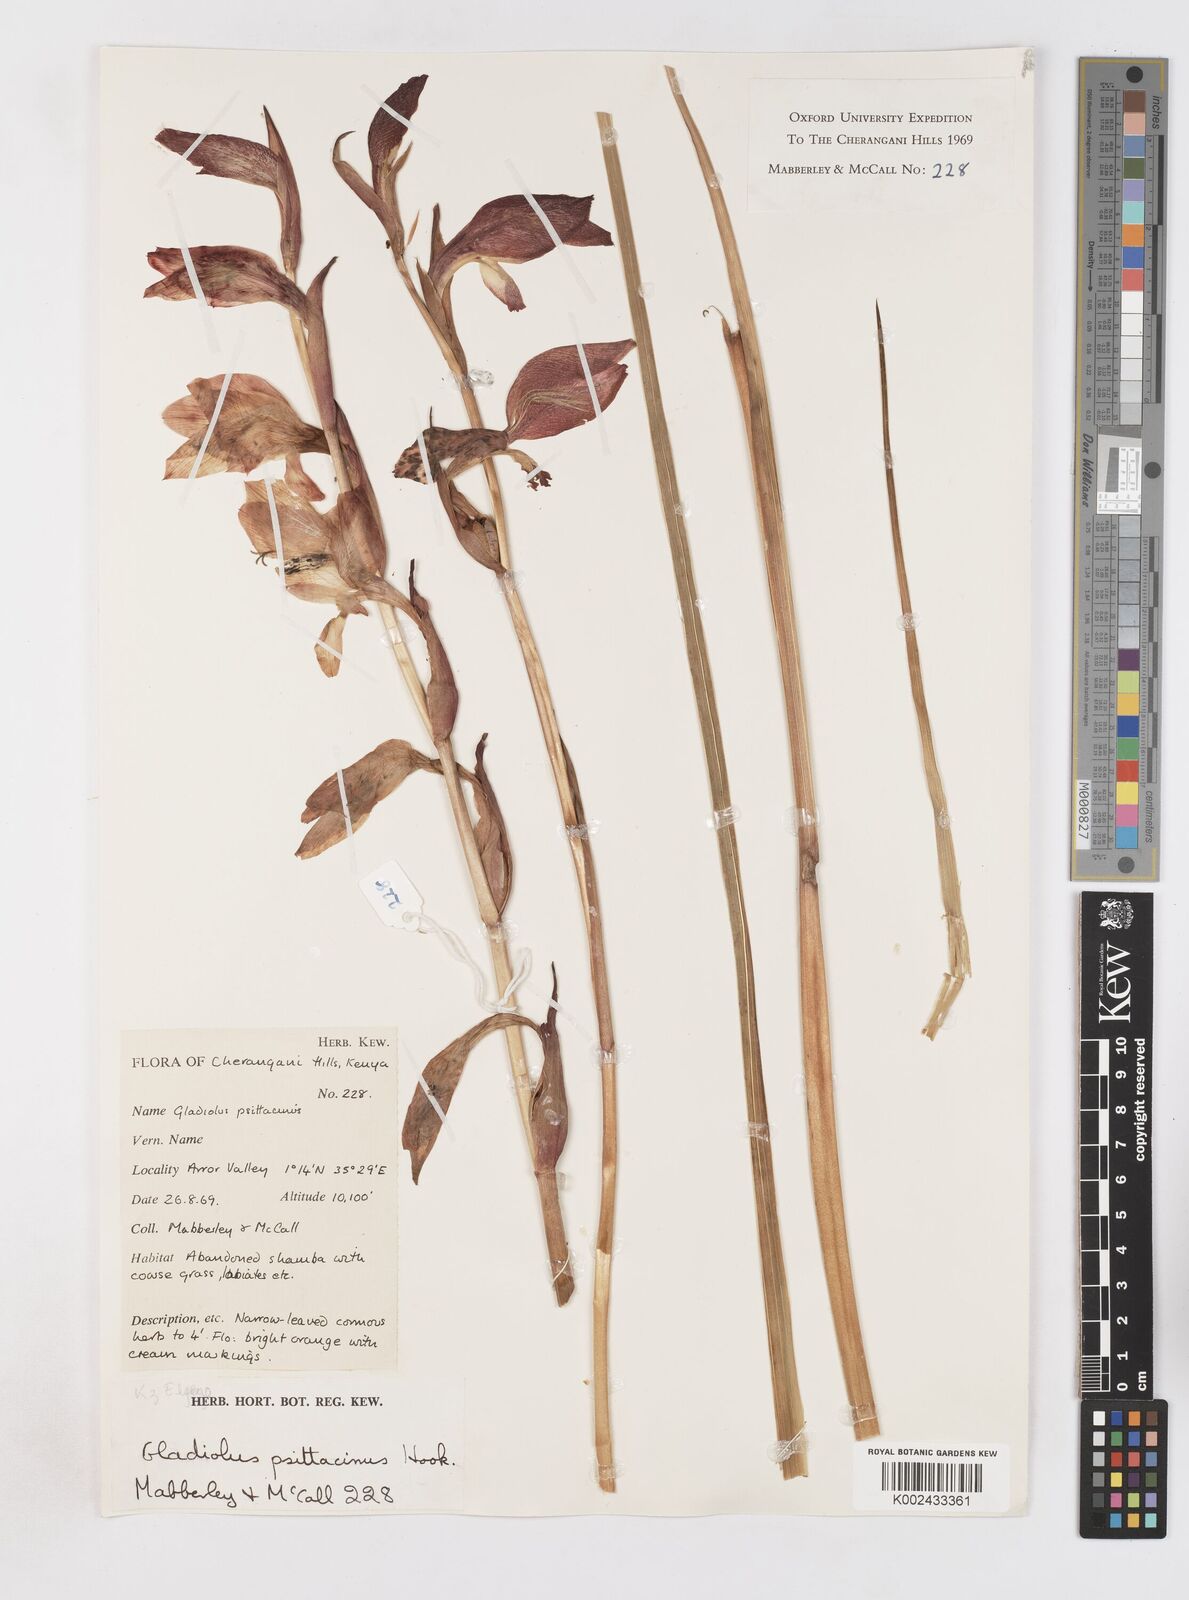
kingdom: Plantae
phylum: Tracheophyta
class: Liliopsida
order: Asparagales
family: Iridaceae
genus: Gladiolus
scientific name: Gladiolus dalenii
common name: Cornflag
